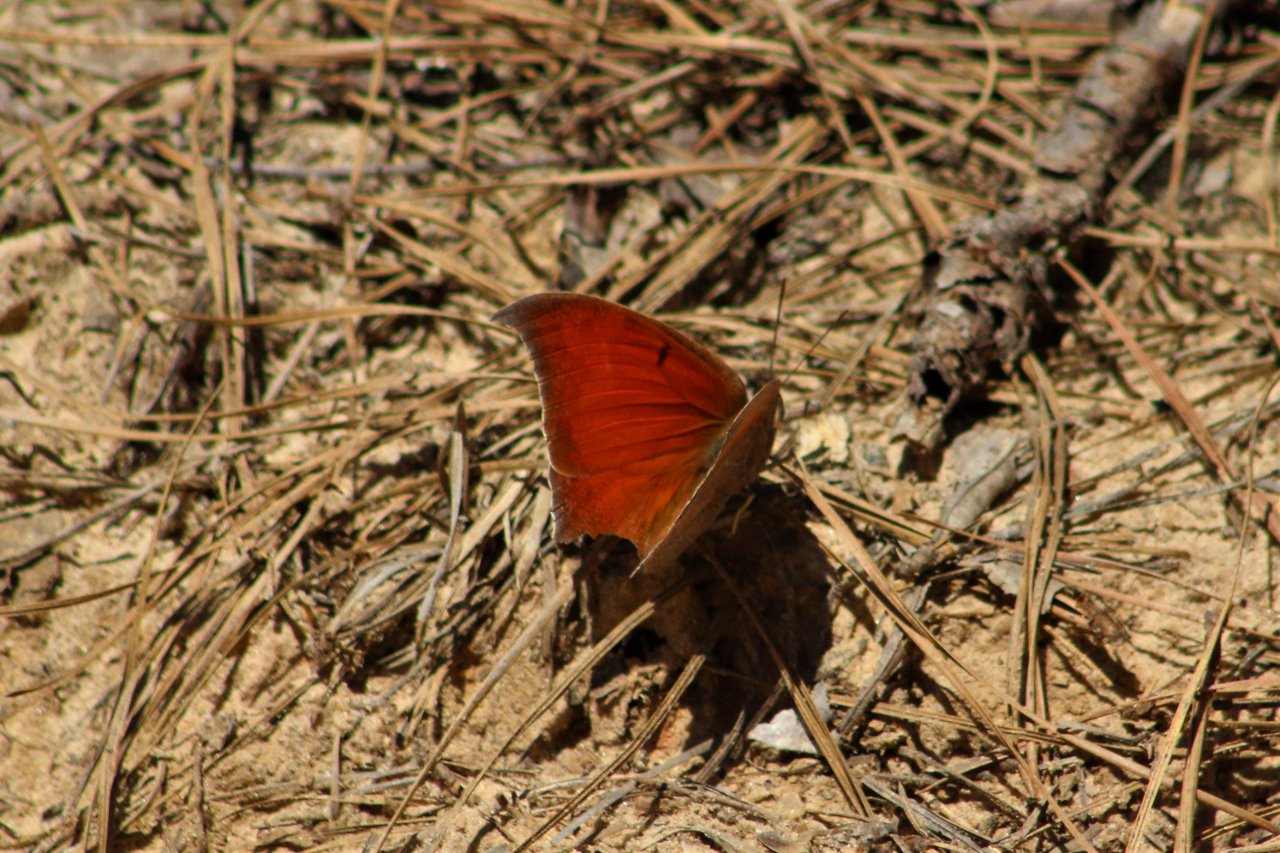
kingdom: Animalia
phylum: Arthropoda
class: Insecta
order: Lepidoptera
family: Nymphalidae
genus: Anaea
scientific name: Anaea andria
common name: Goatweed Leafwing
